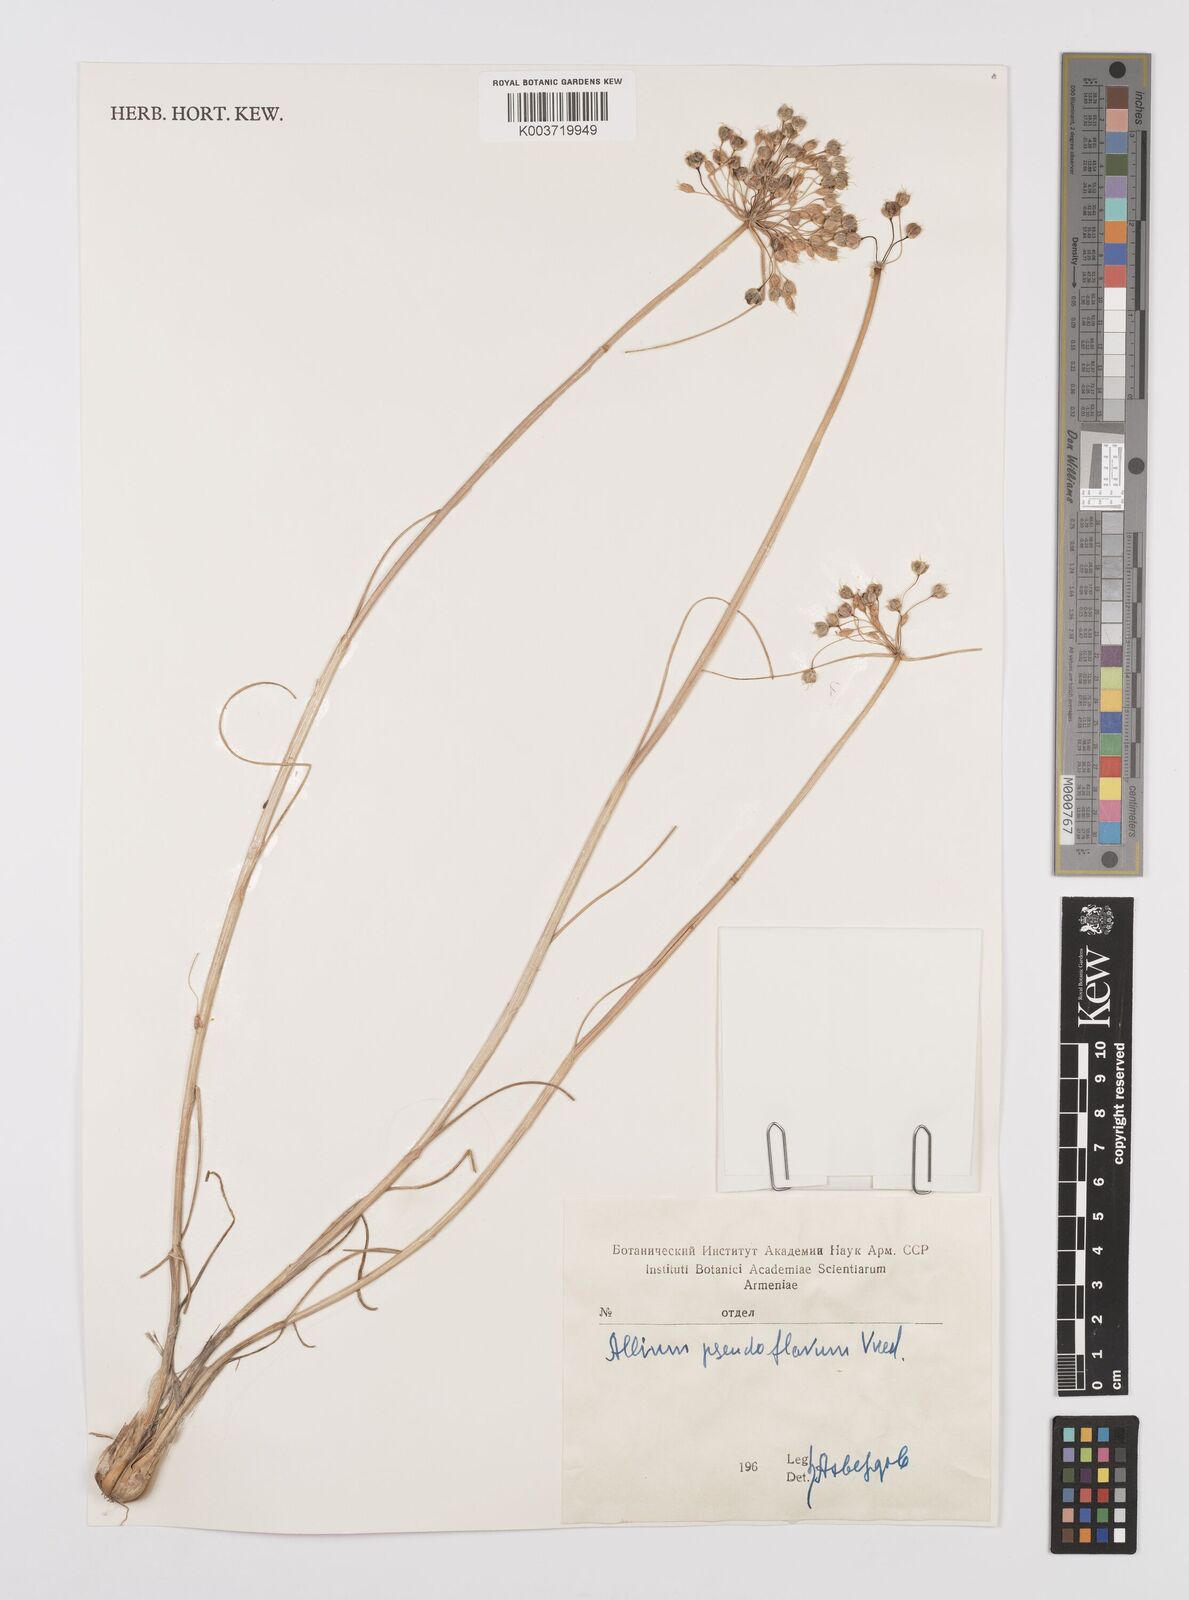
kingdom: Plantae
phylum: Tracheophyta
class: Liliopsida
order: Asparagales
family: Amaryllidaceae
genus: Allium
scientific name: Allium pseudoflavum
